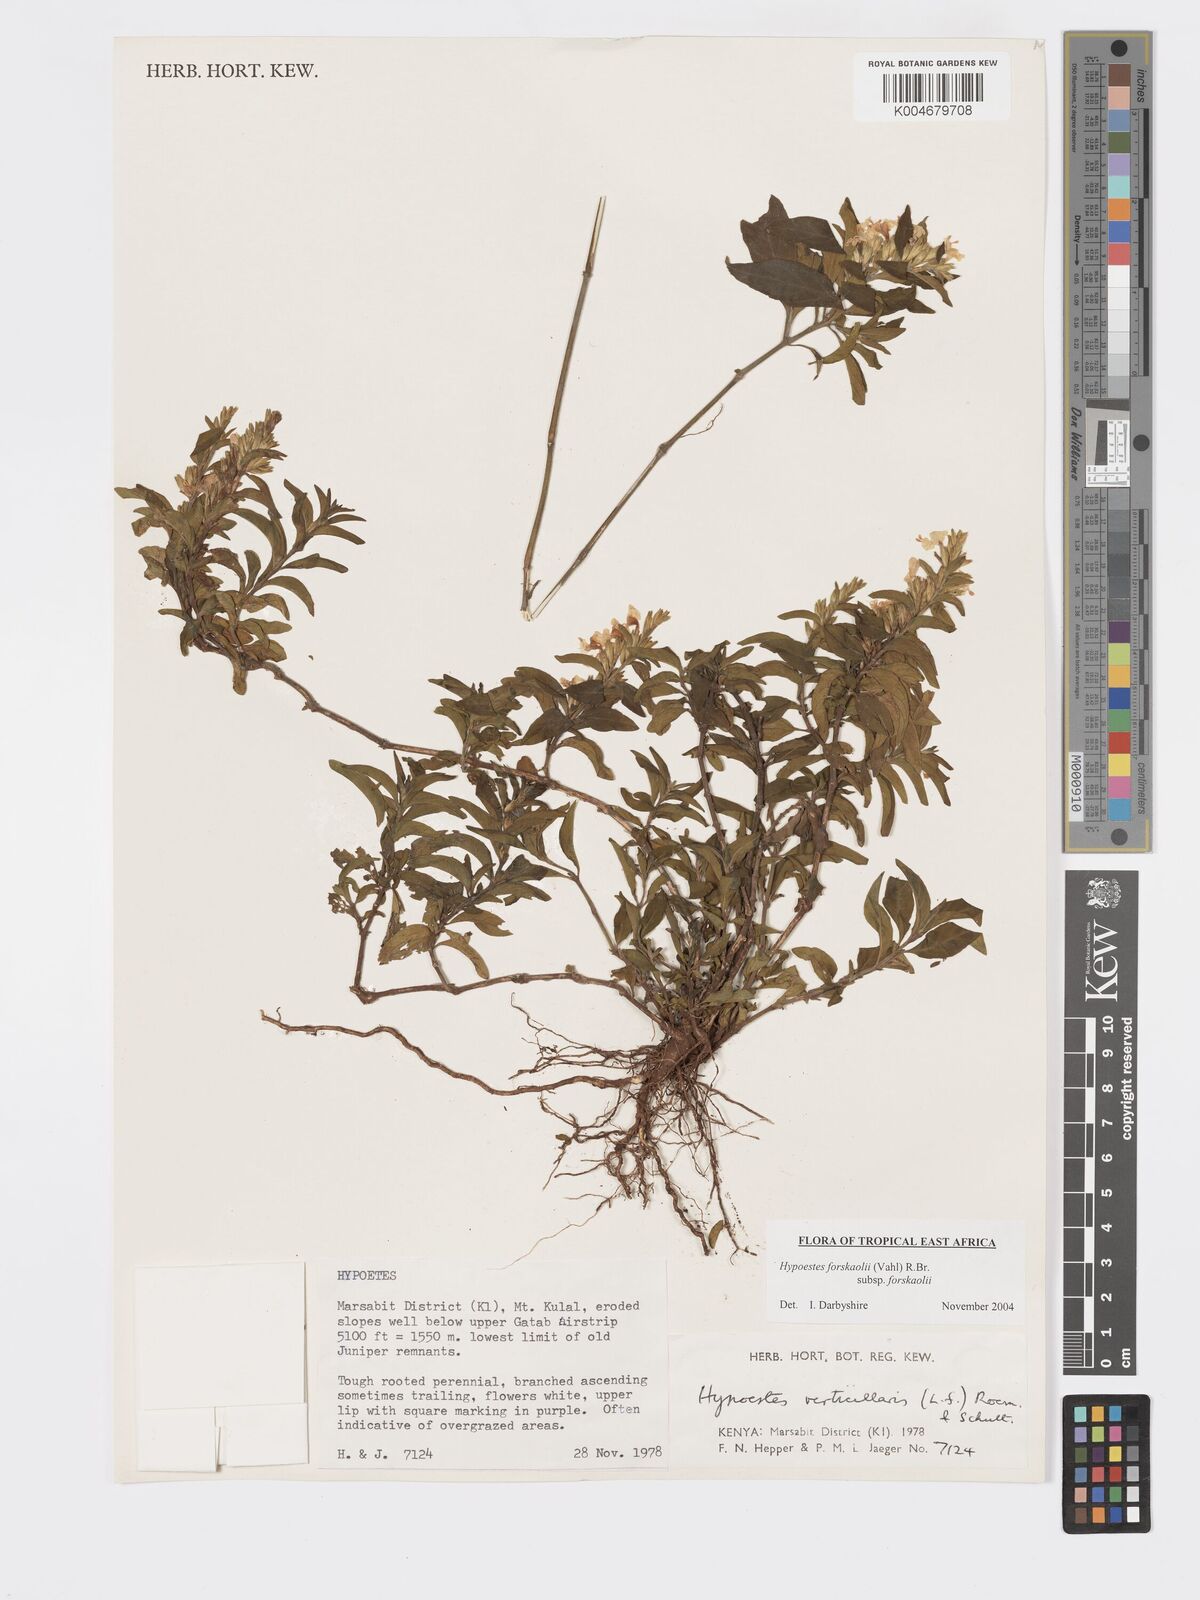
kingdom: Plantae
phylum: Tracheophyta
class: Magnoliopsida
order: Lamiales
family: Acanthaceae
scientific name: Acanthaceae
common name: Acanthaceae
